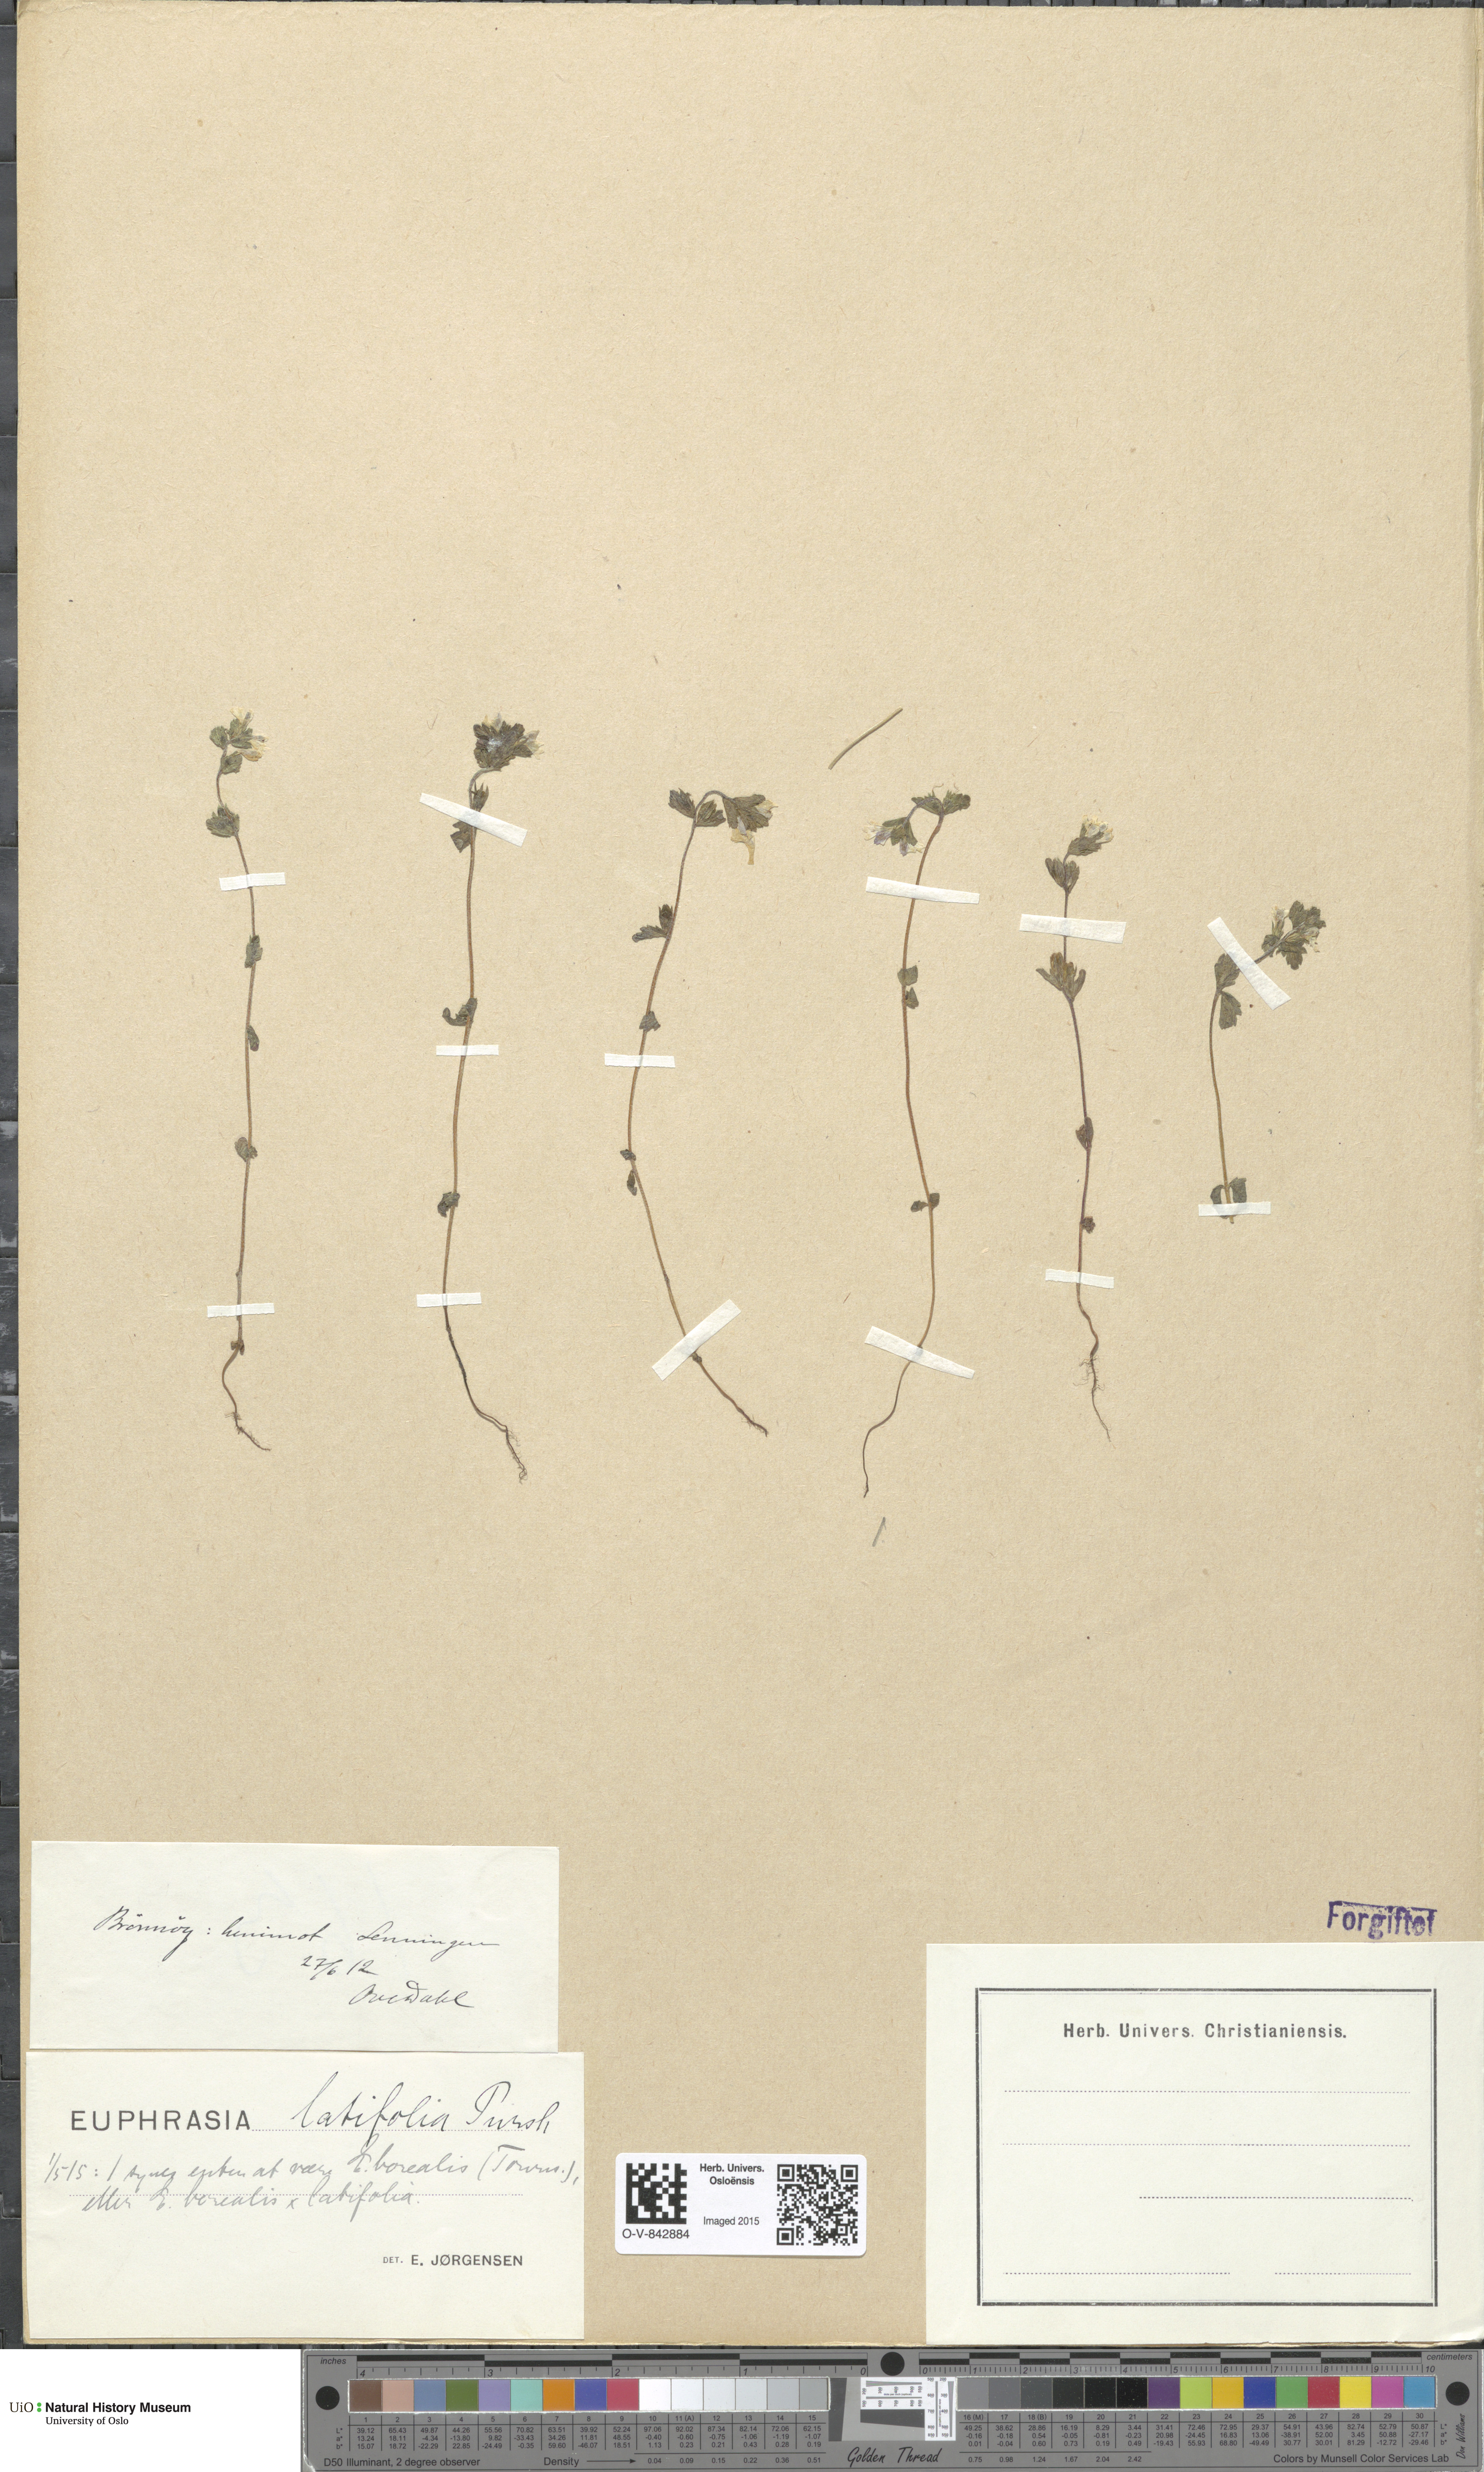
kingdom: Plantae
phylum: Tracheophyta
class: Magnoliopsida
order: Lamiales
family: Orobanchaceae
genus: Euphrasia
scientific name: Euphrasia wettsteinii
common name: Wettstein's eyebright
